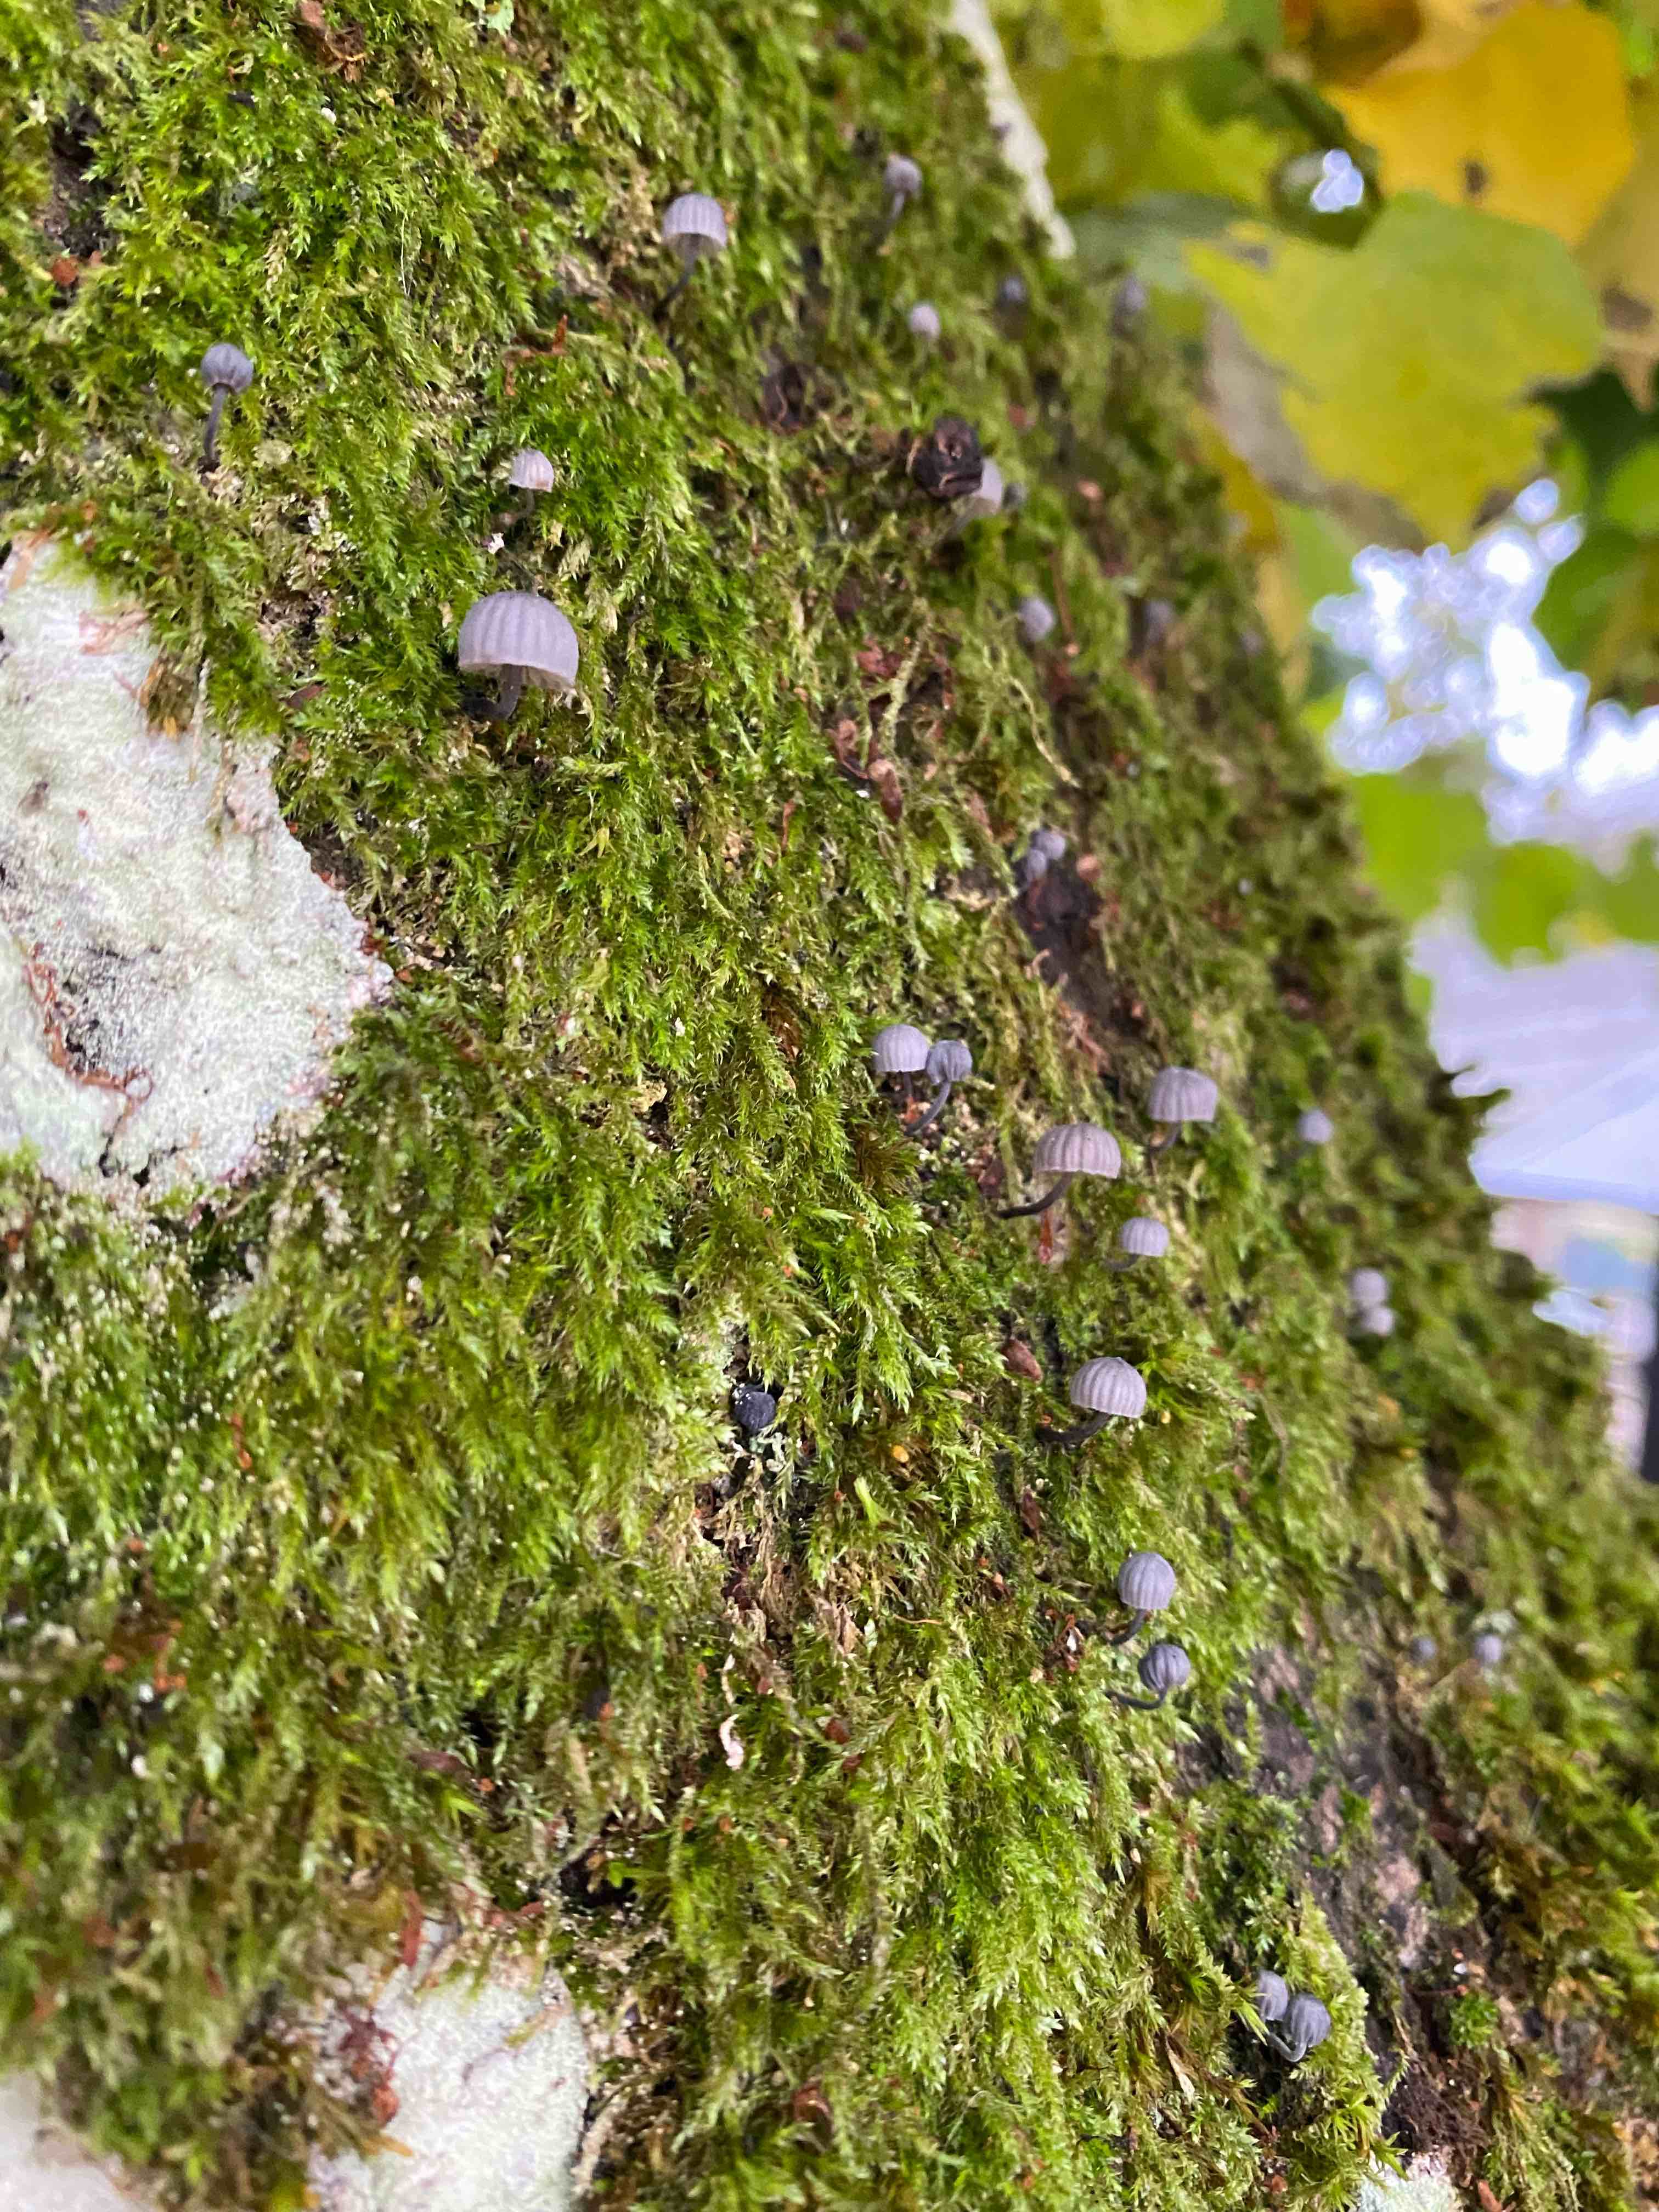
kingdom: Fungi
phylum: Basidiomycota
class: Agaricomycetes
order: Agaricales
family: Mycenaceae
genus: Mycena
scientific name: Mycena pseudocorticola
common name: gråblå bark-huesvamp
